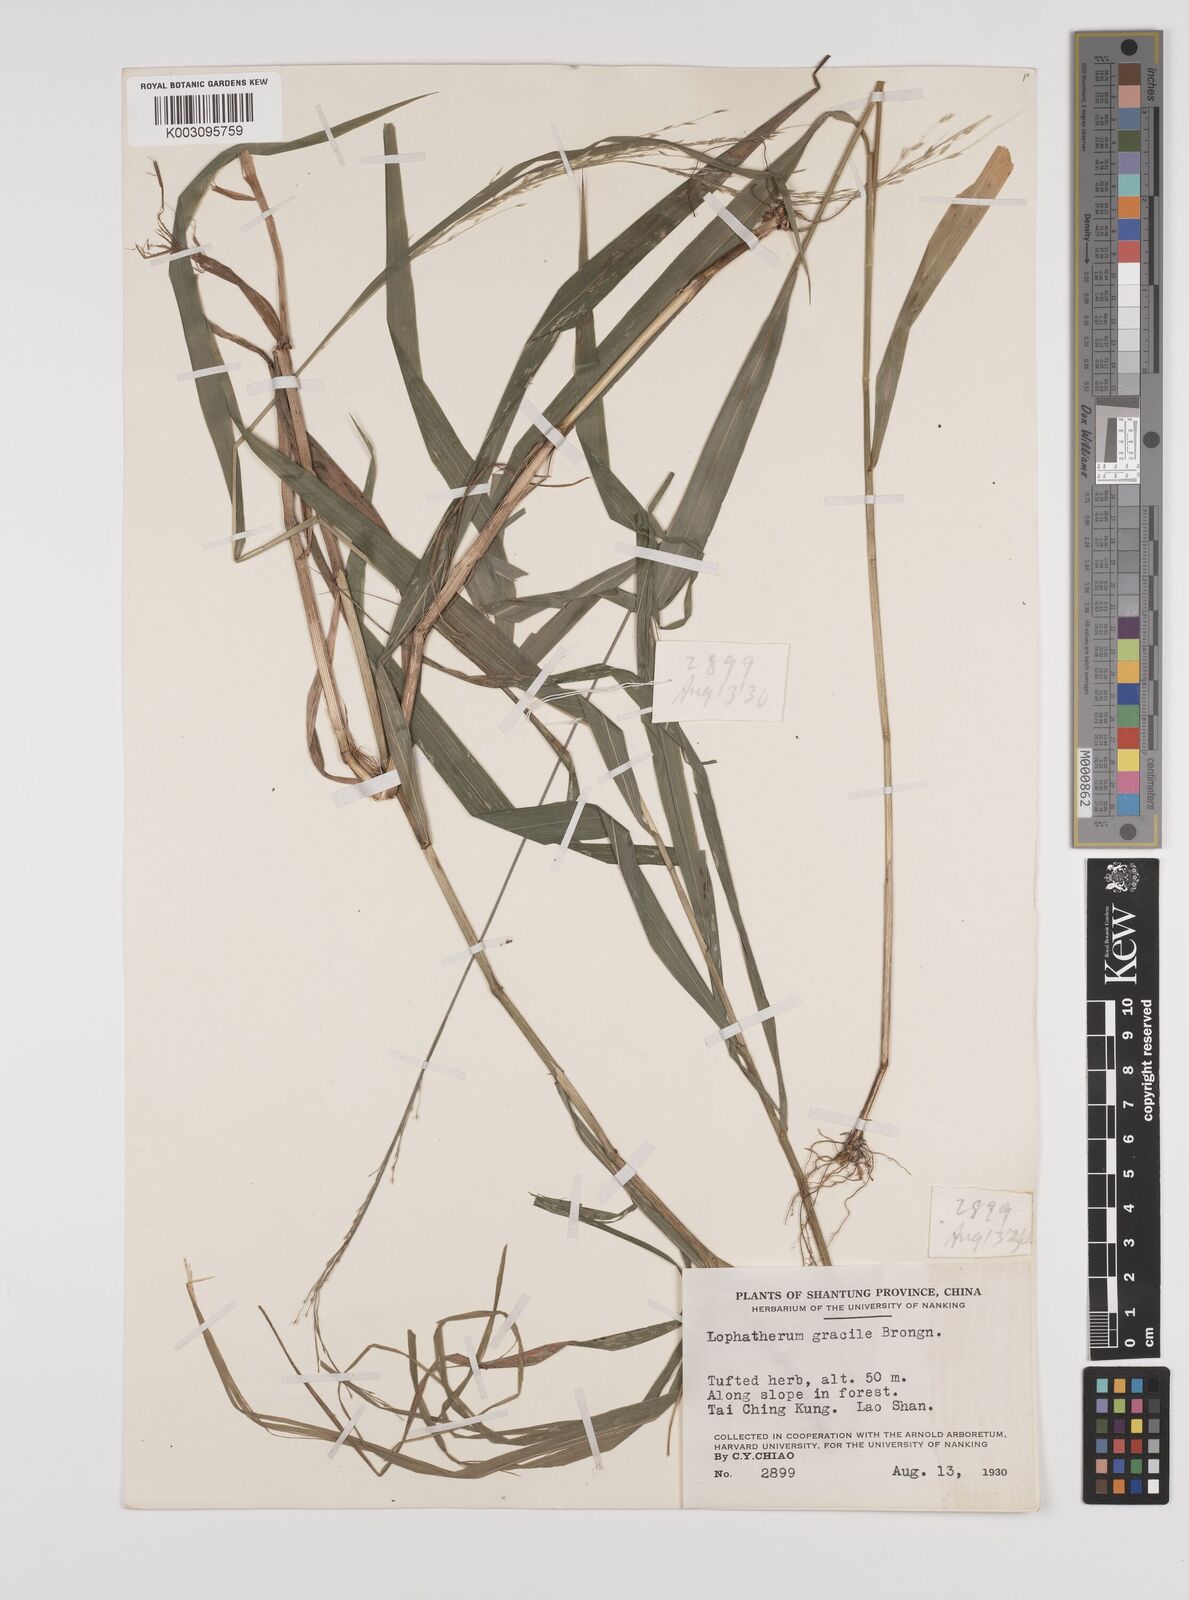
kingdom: Plantae
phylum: Tracheophyta
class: Liliopsida
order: Poales
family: Poaceae
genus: Lophatherum
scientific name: Lophatherum gracile
